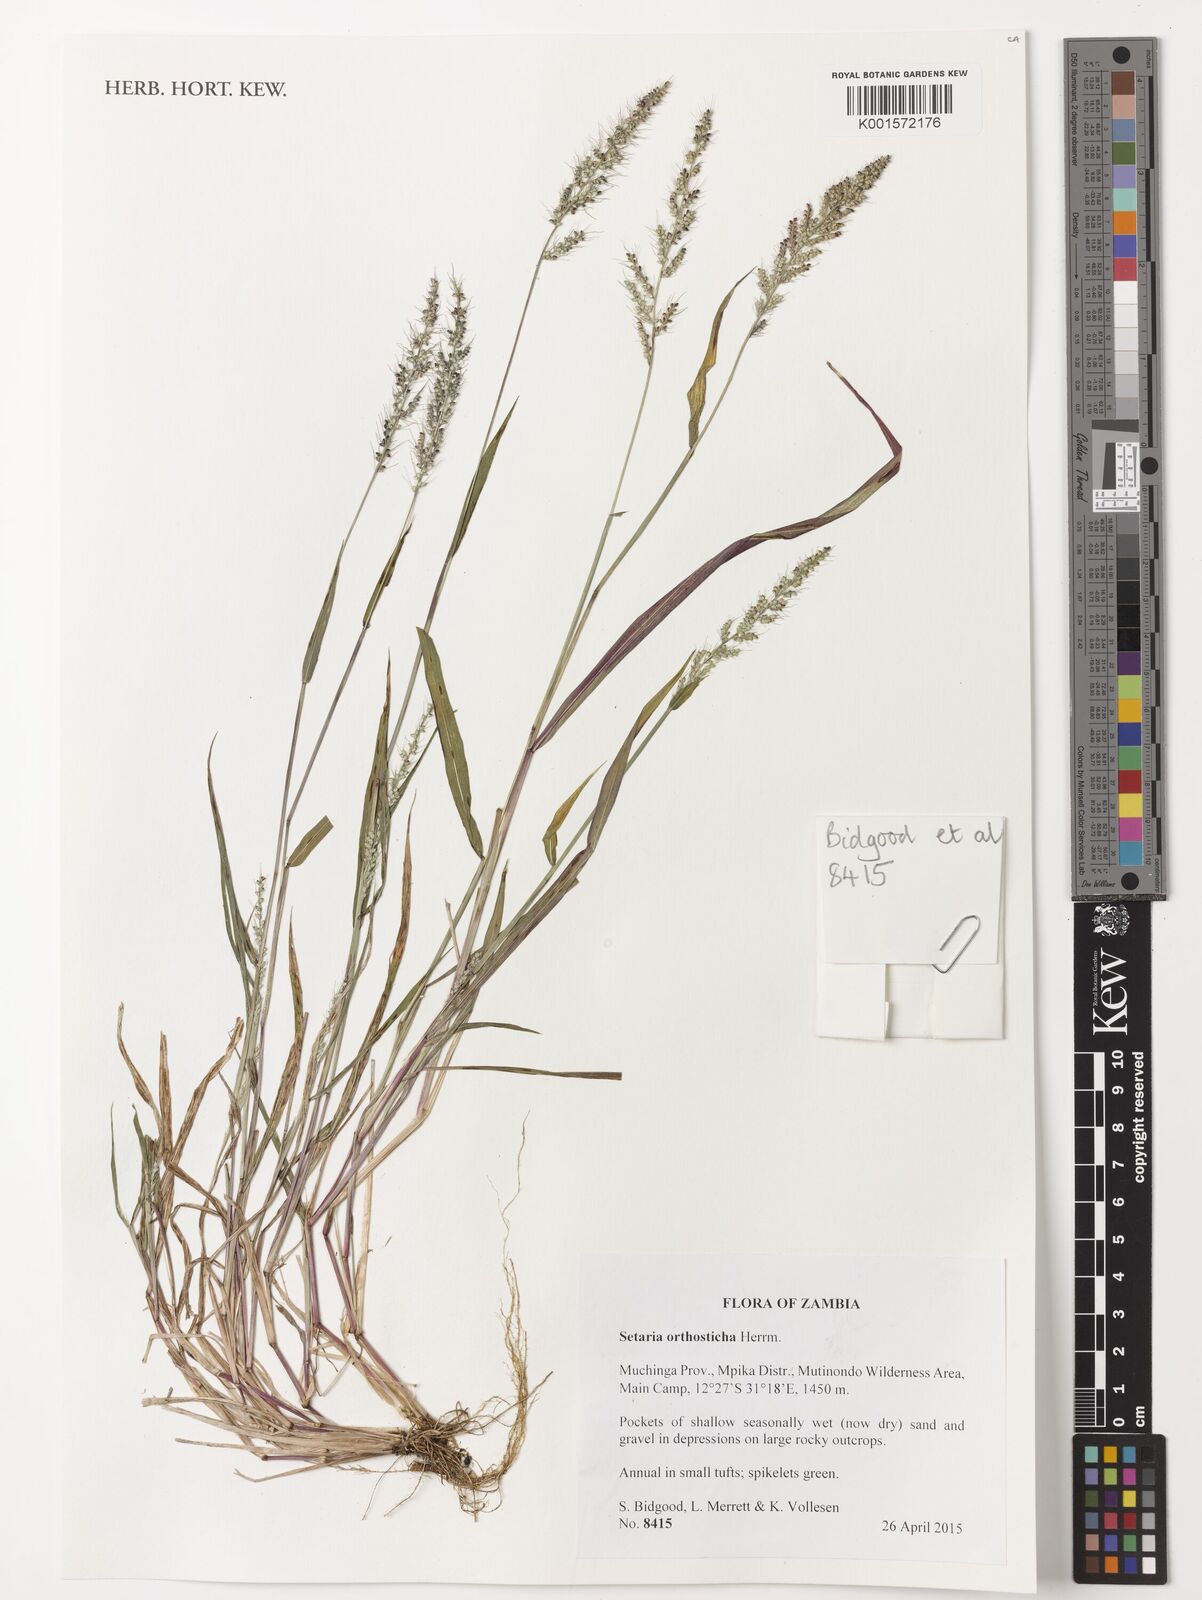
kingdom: Plantae
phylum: Tracheophyta
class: Liliopsida
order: Poales
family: Poaceae
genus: Setaria
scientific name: Setaria orthosticha
